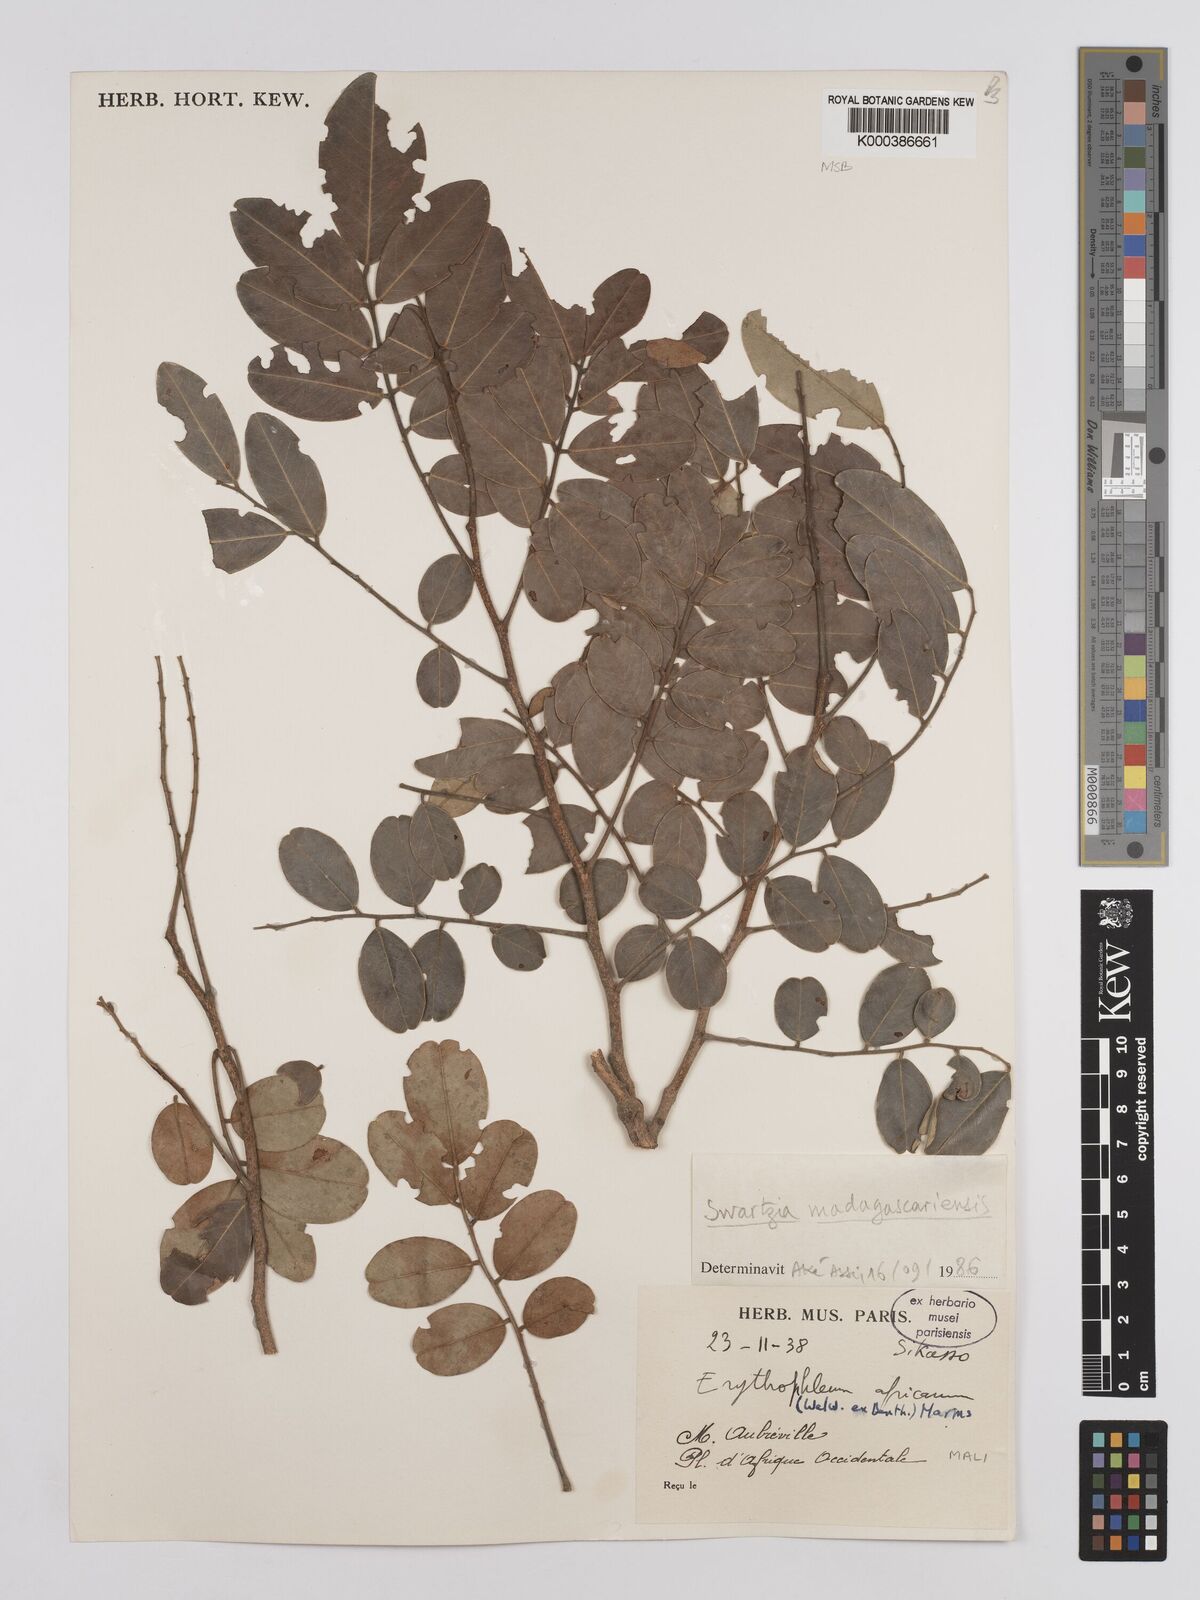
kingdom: Plantae
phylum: Tracheophyta
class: Magnoliopsida
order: Fabales
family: Fabaceae
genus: Bobgunnia
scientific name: Bobgunnia madagascariensis
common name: Snake bean plant
